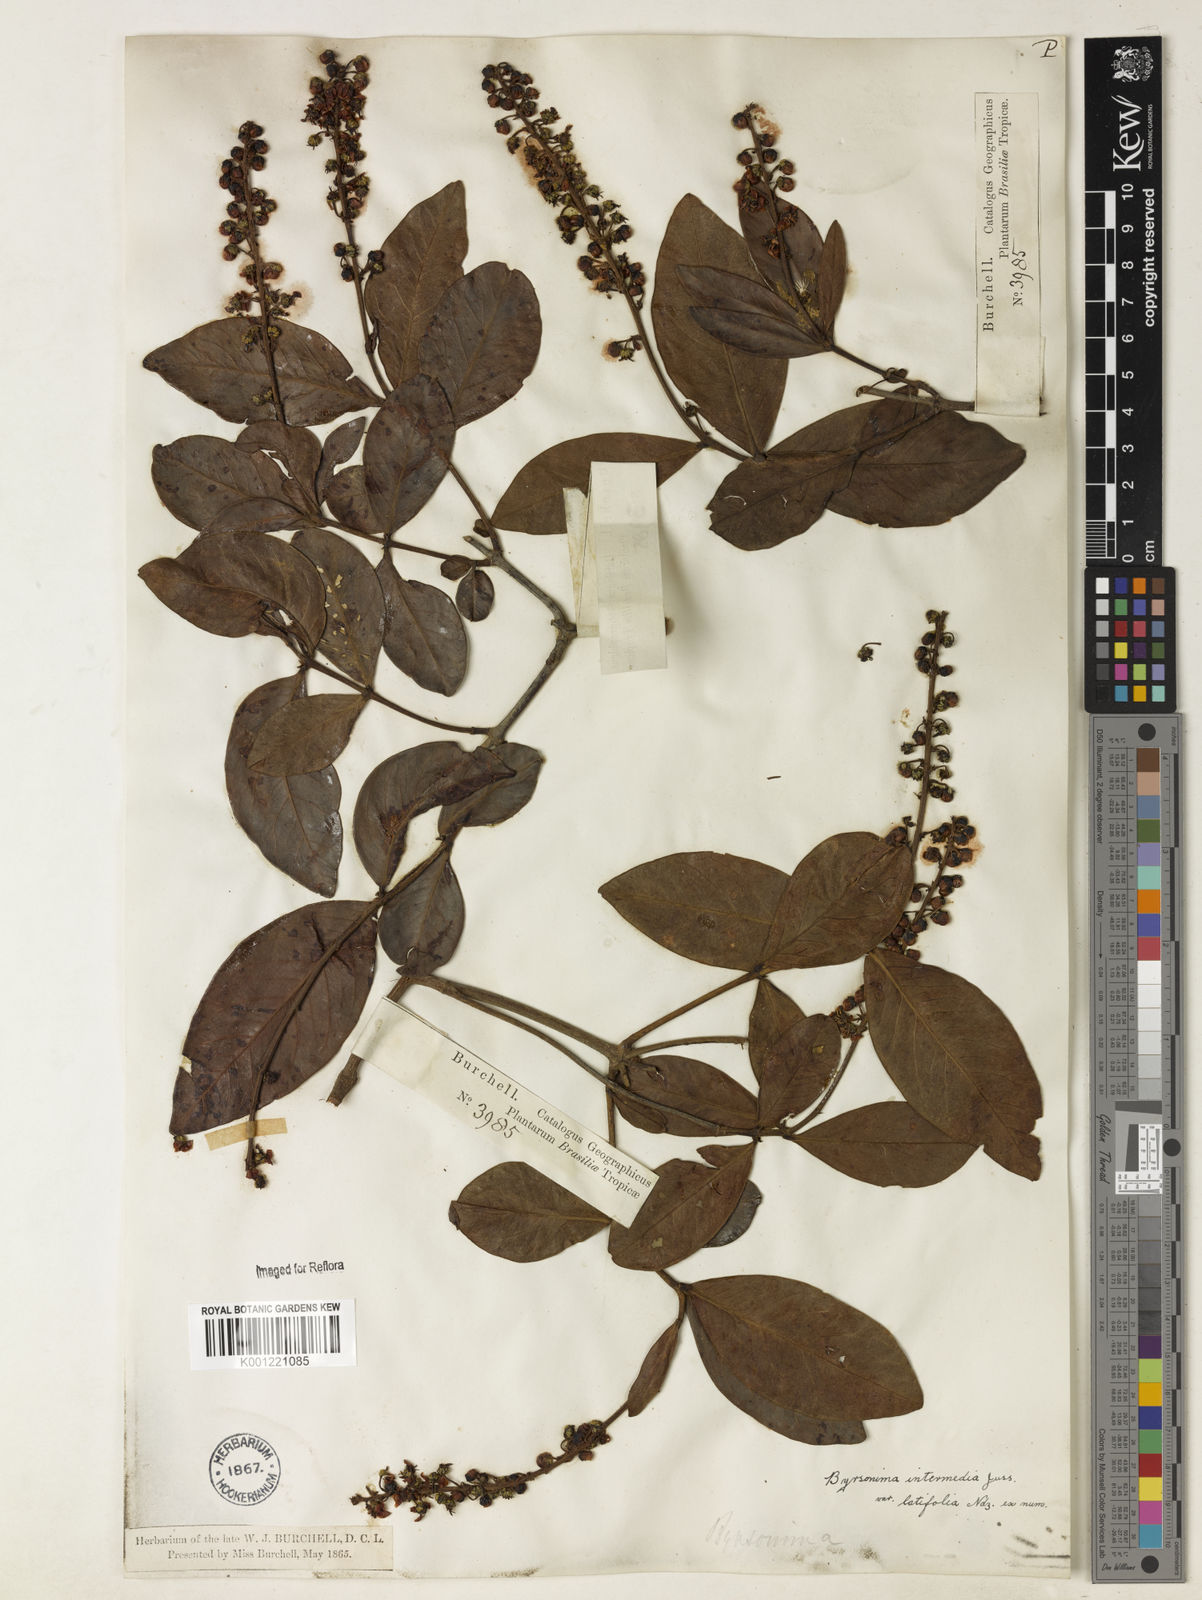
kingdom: Plantae
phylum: Tracheophyta
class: Magnoliopsida
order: Malpighiales
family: Malpighiaceae
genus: Byrsonima
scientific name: Byrsonima intermedia
